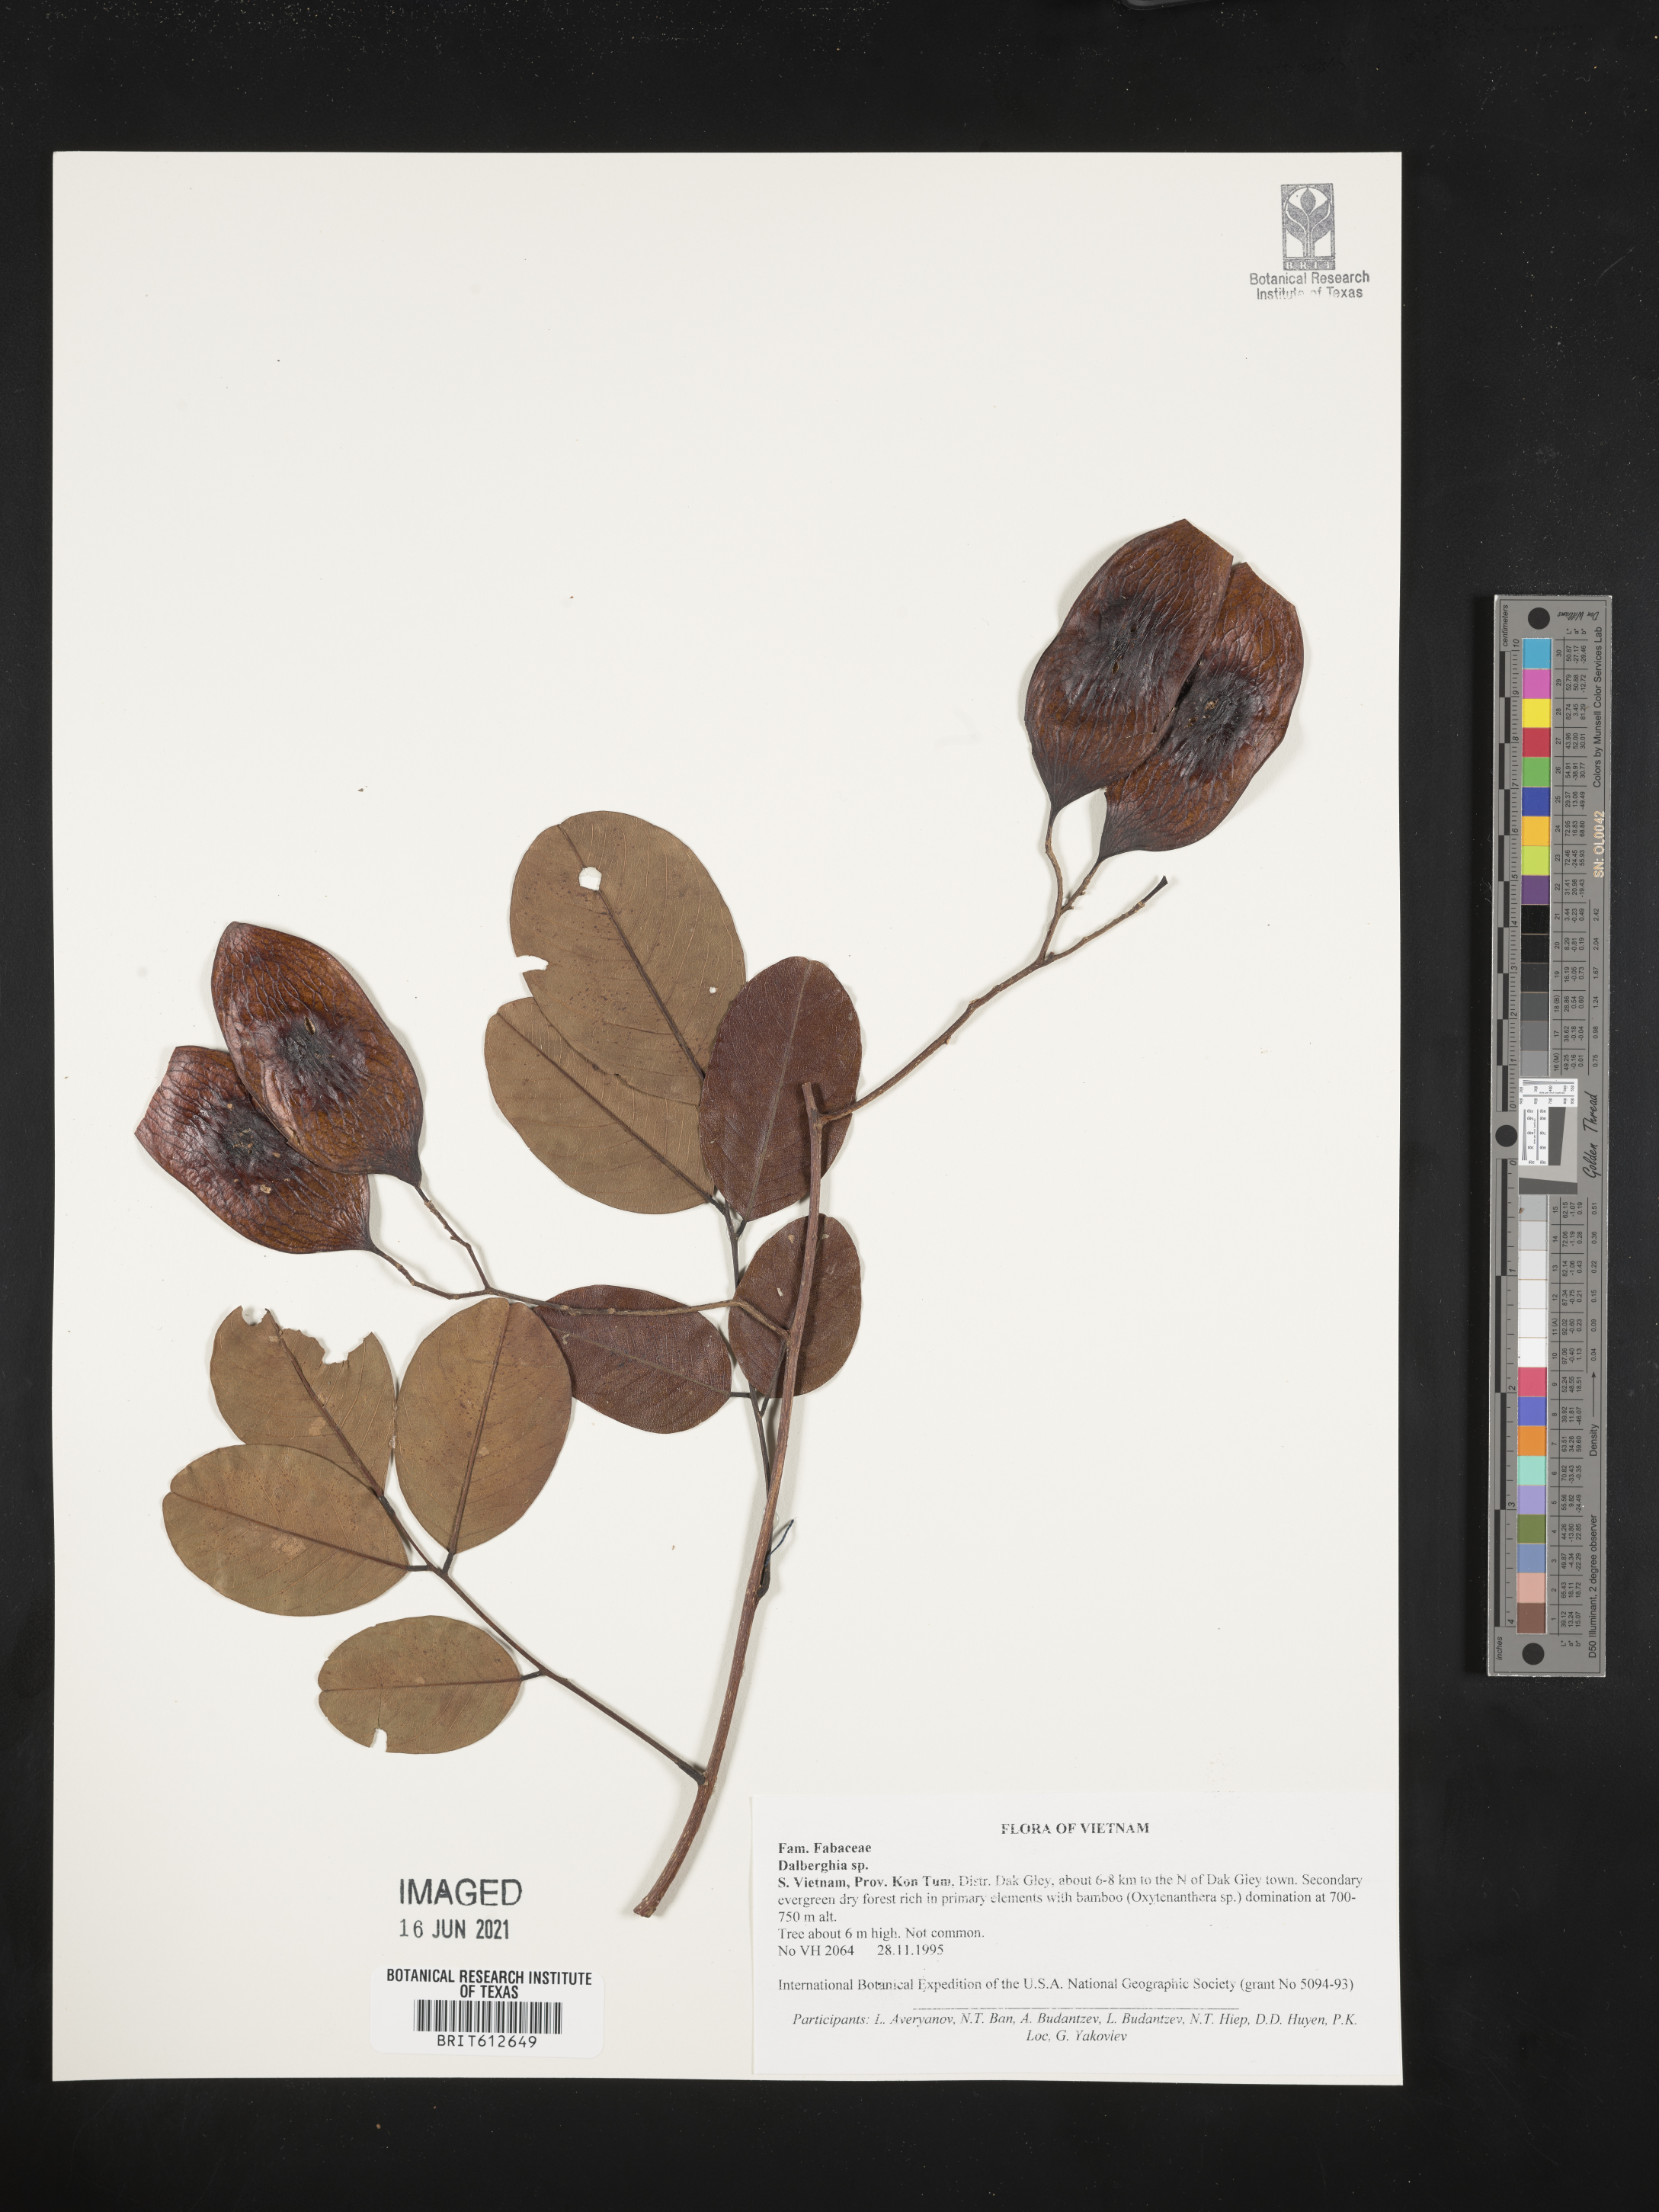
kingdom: Plantae
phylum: Tracheophyta
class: Magnoliopsida
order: Lamiales
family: Gesneriaceae
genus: Columnea
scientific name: Columnea
